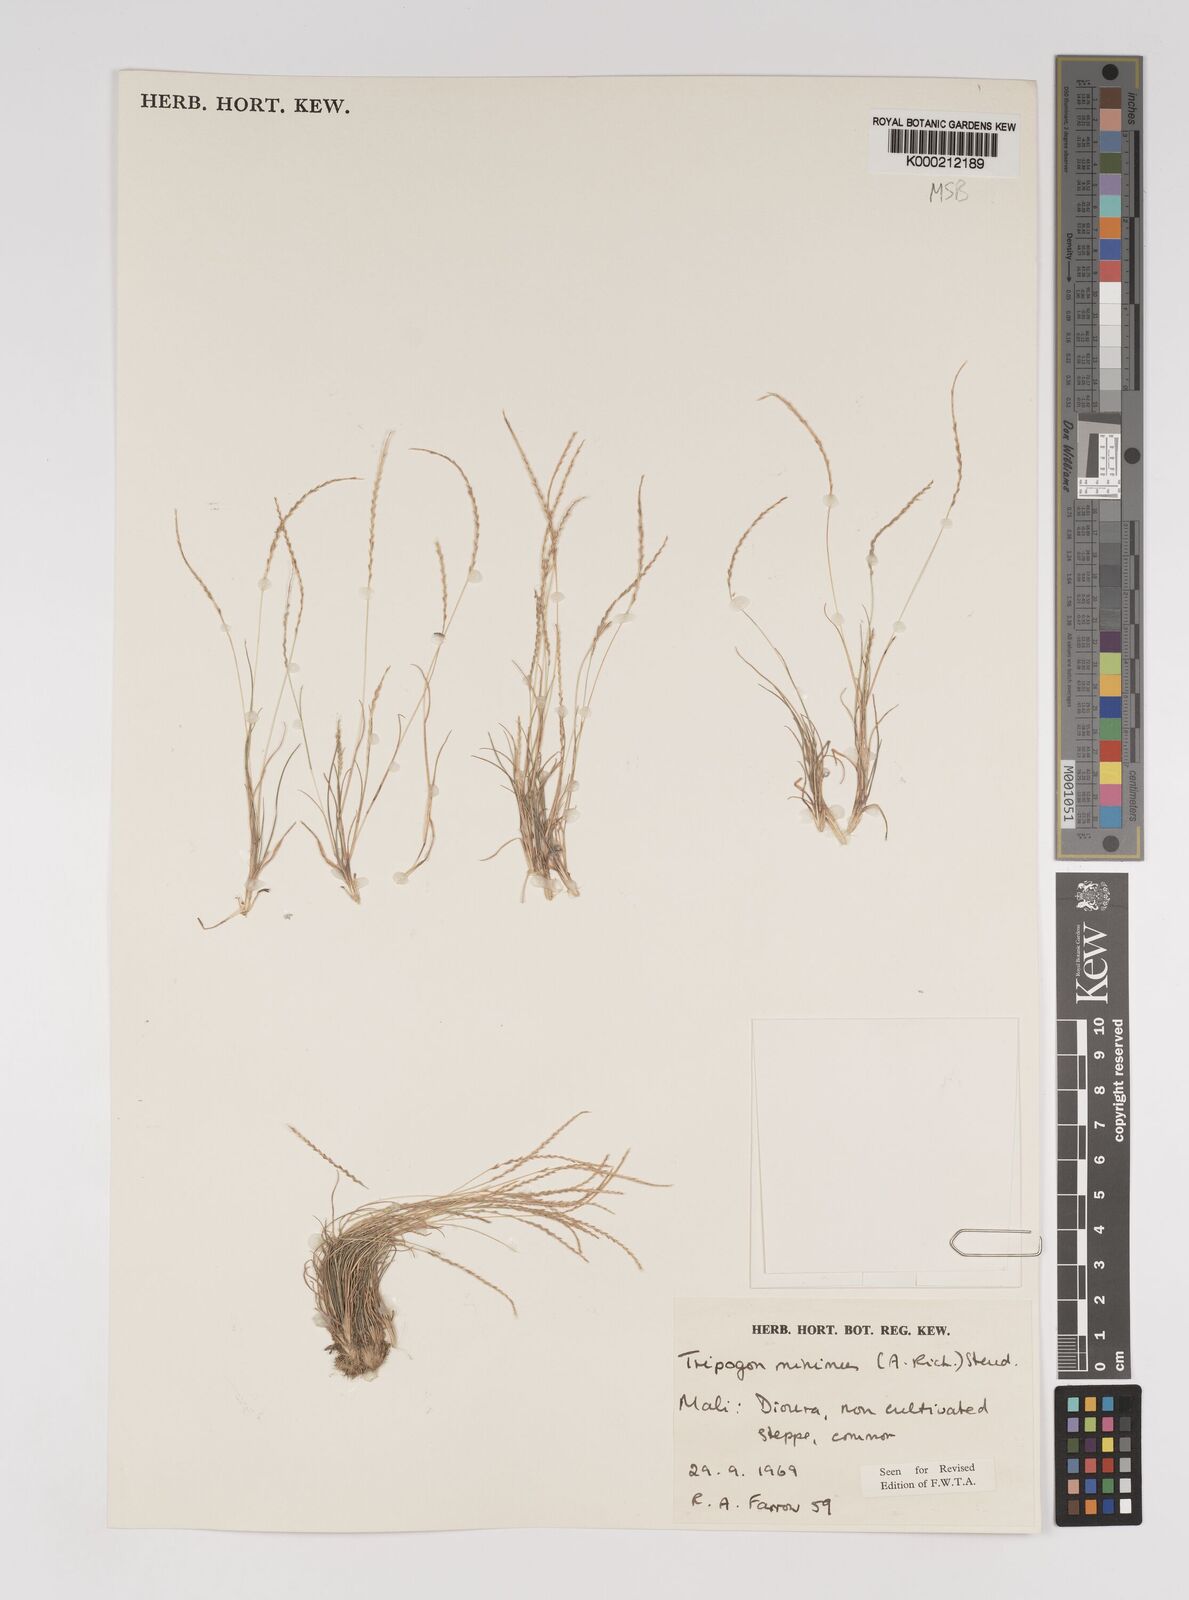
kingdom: Plantae
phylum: Tracheophyta
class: Liliopsida
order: Poales
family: Poaceae
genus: Tripogonella
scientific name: Tripogonella minima
